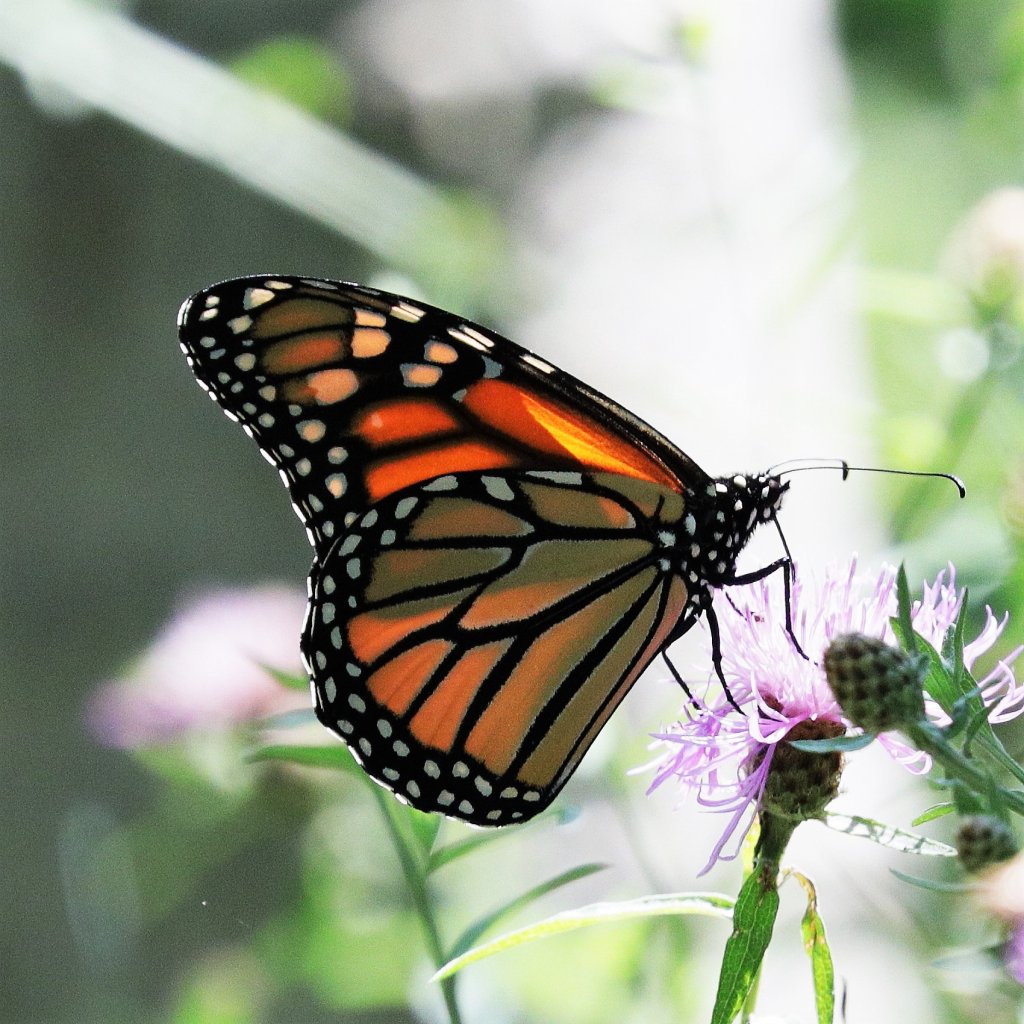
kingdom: Animalia
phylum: Arthropoda
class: Insecta
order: Lepidoptera
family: Nymphalidae
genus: Danaus
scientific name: Danaus plexippus
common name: Monarch
